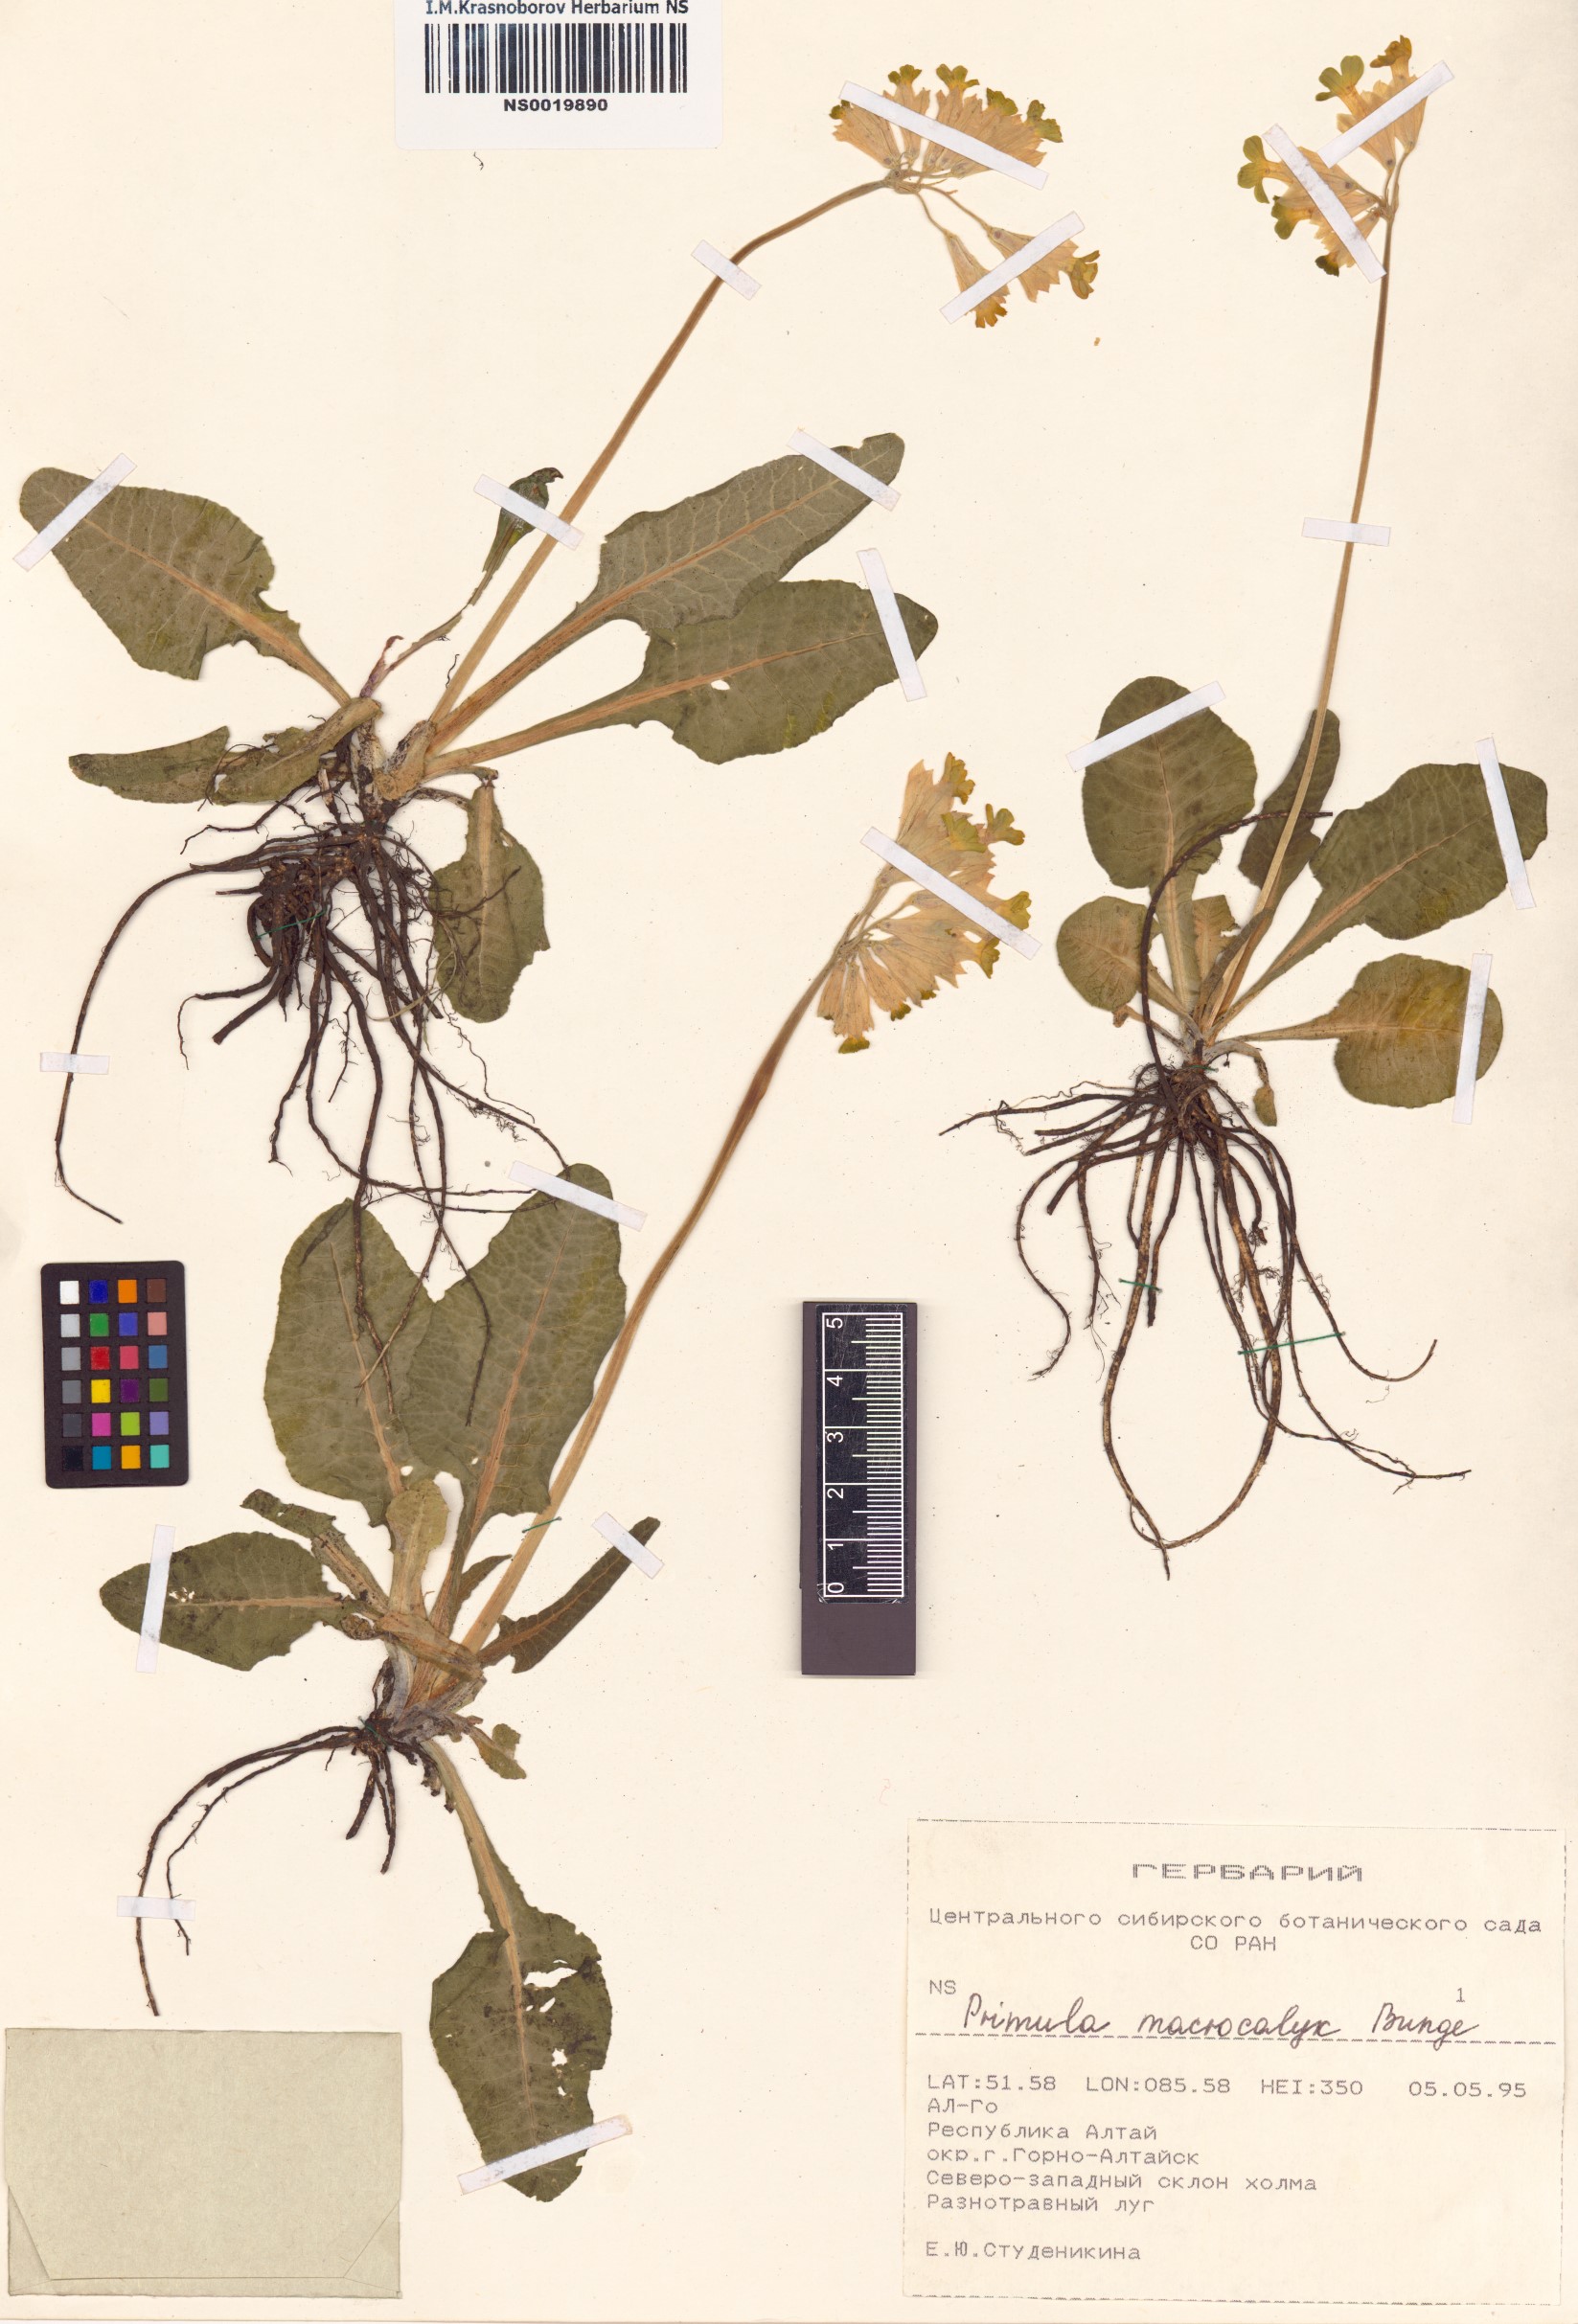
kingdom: Plantae
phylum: Tracheophyta
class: Magnoliopsida
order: Ericales
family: Primulaceae
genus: Primula
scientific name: Primula veris
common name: Cowslip
